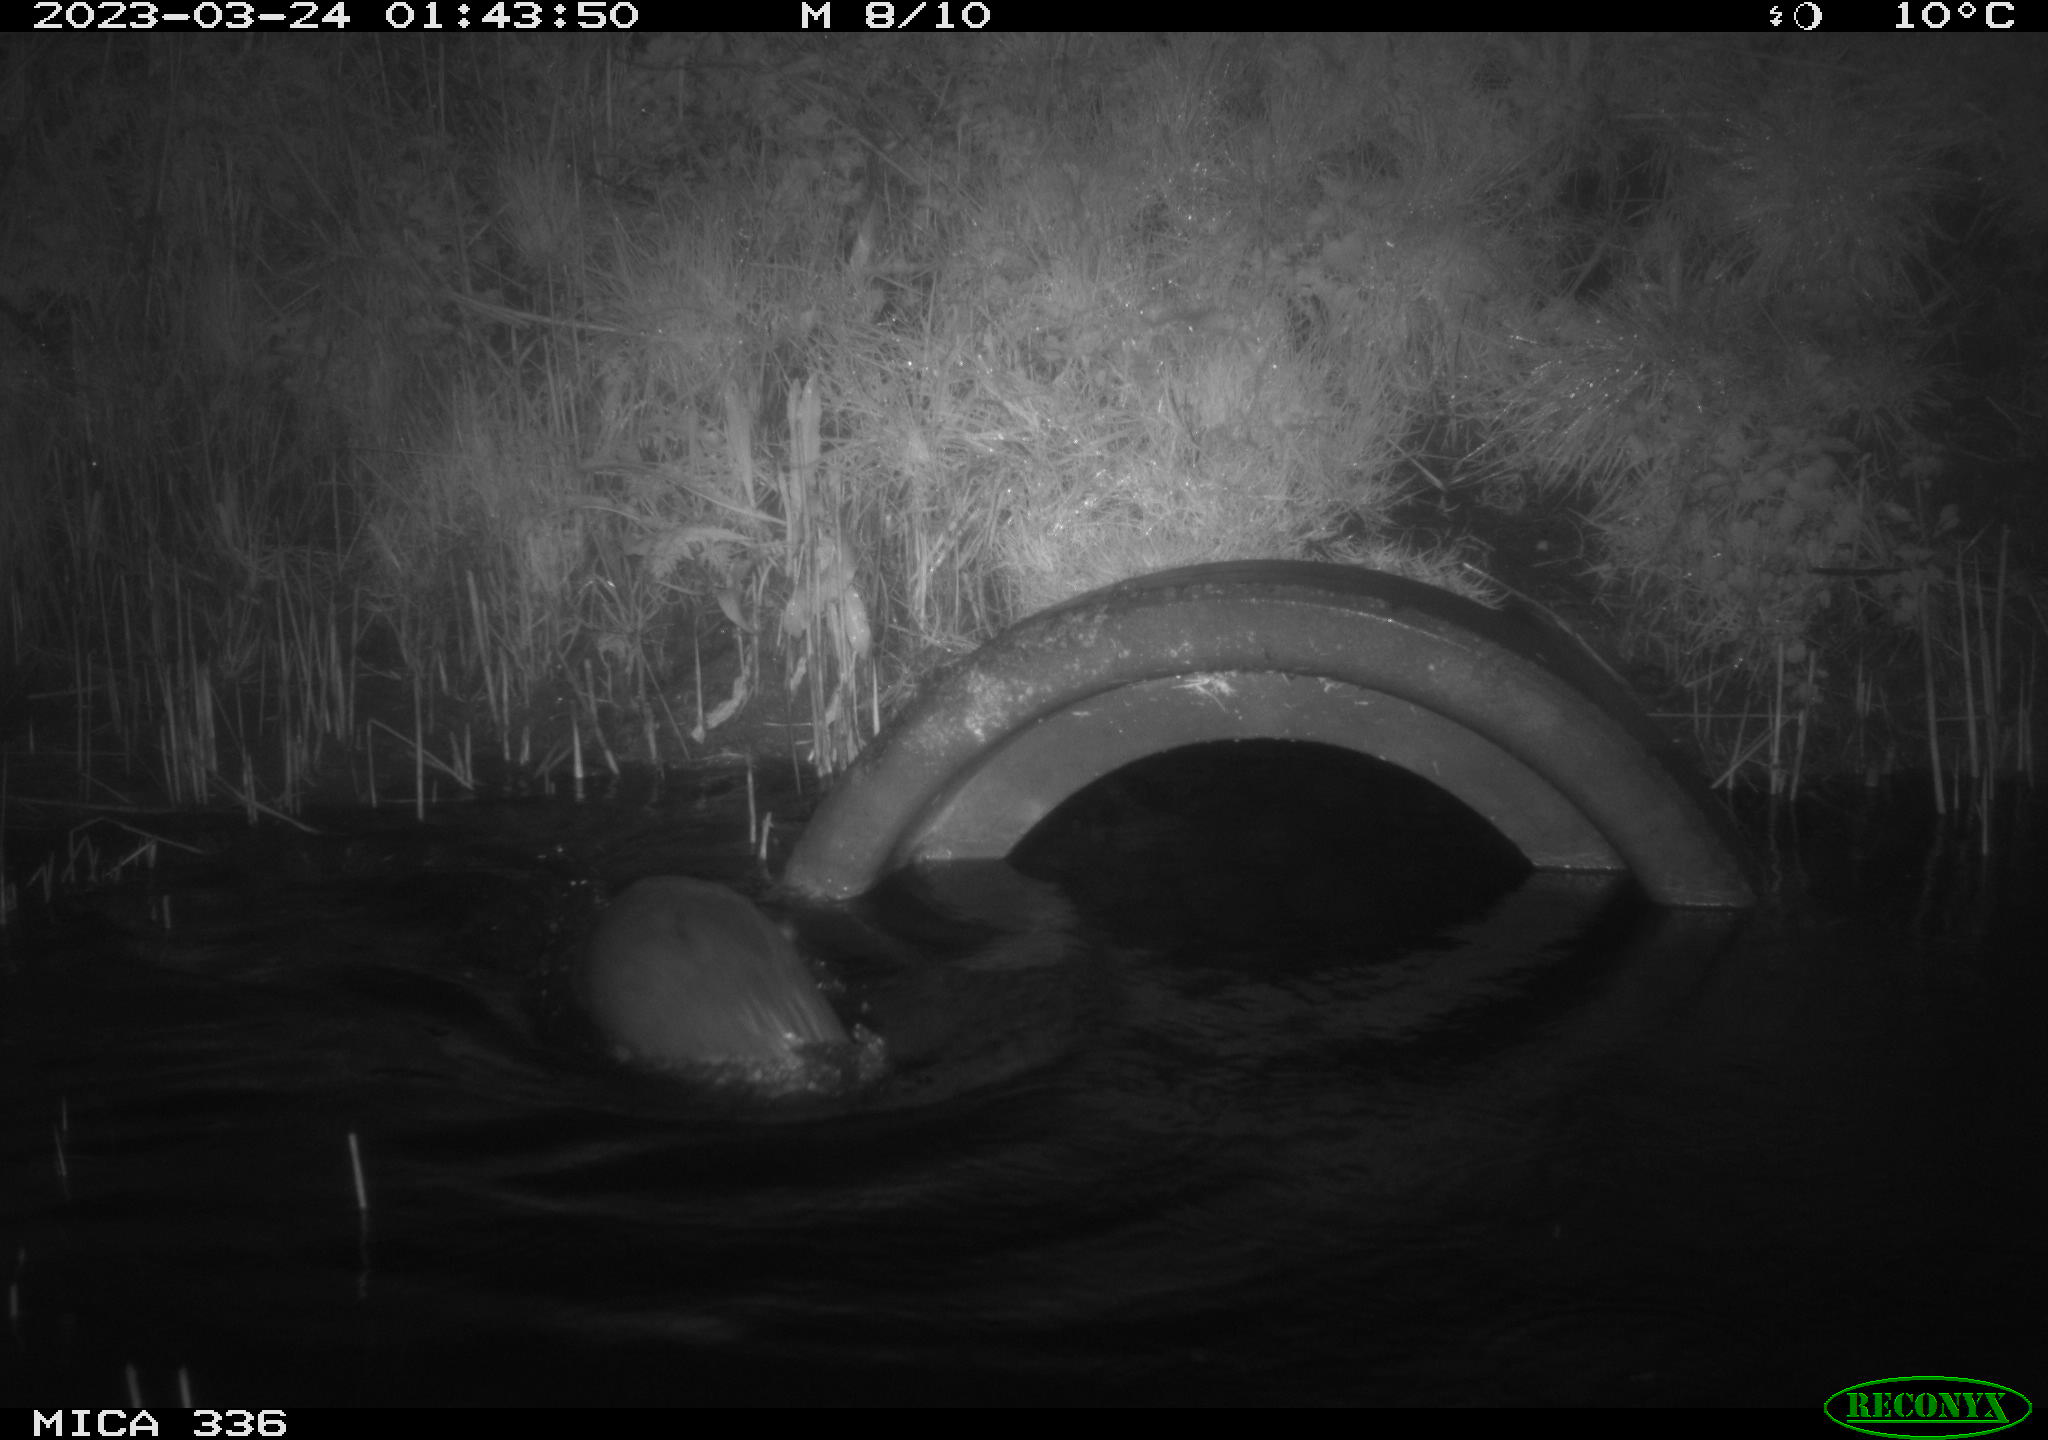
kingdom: Animalia
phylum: Chordata
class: Mammalia
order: Carnivora
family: Mustelidae
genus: Lutra
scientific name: Lutra lutra
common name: European otter
